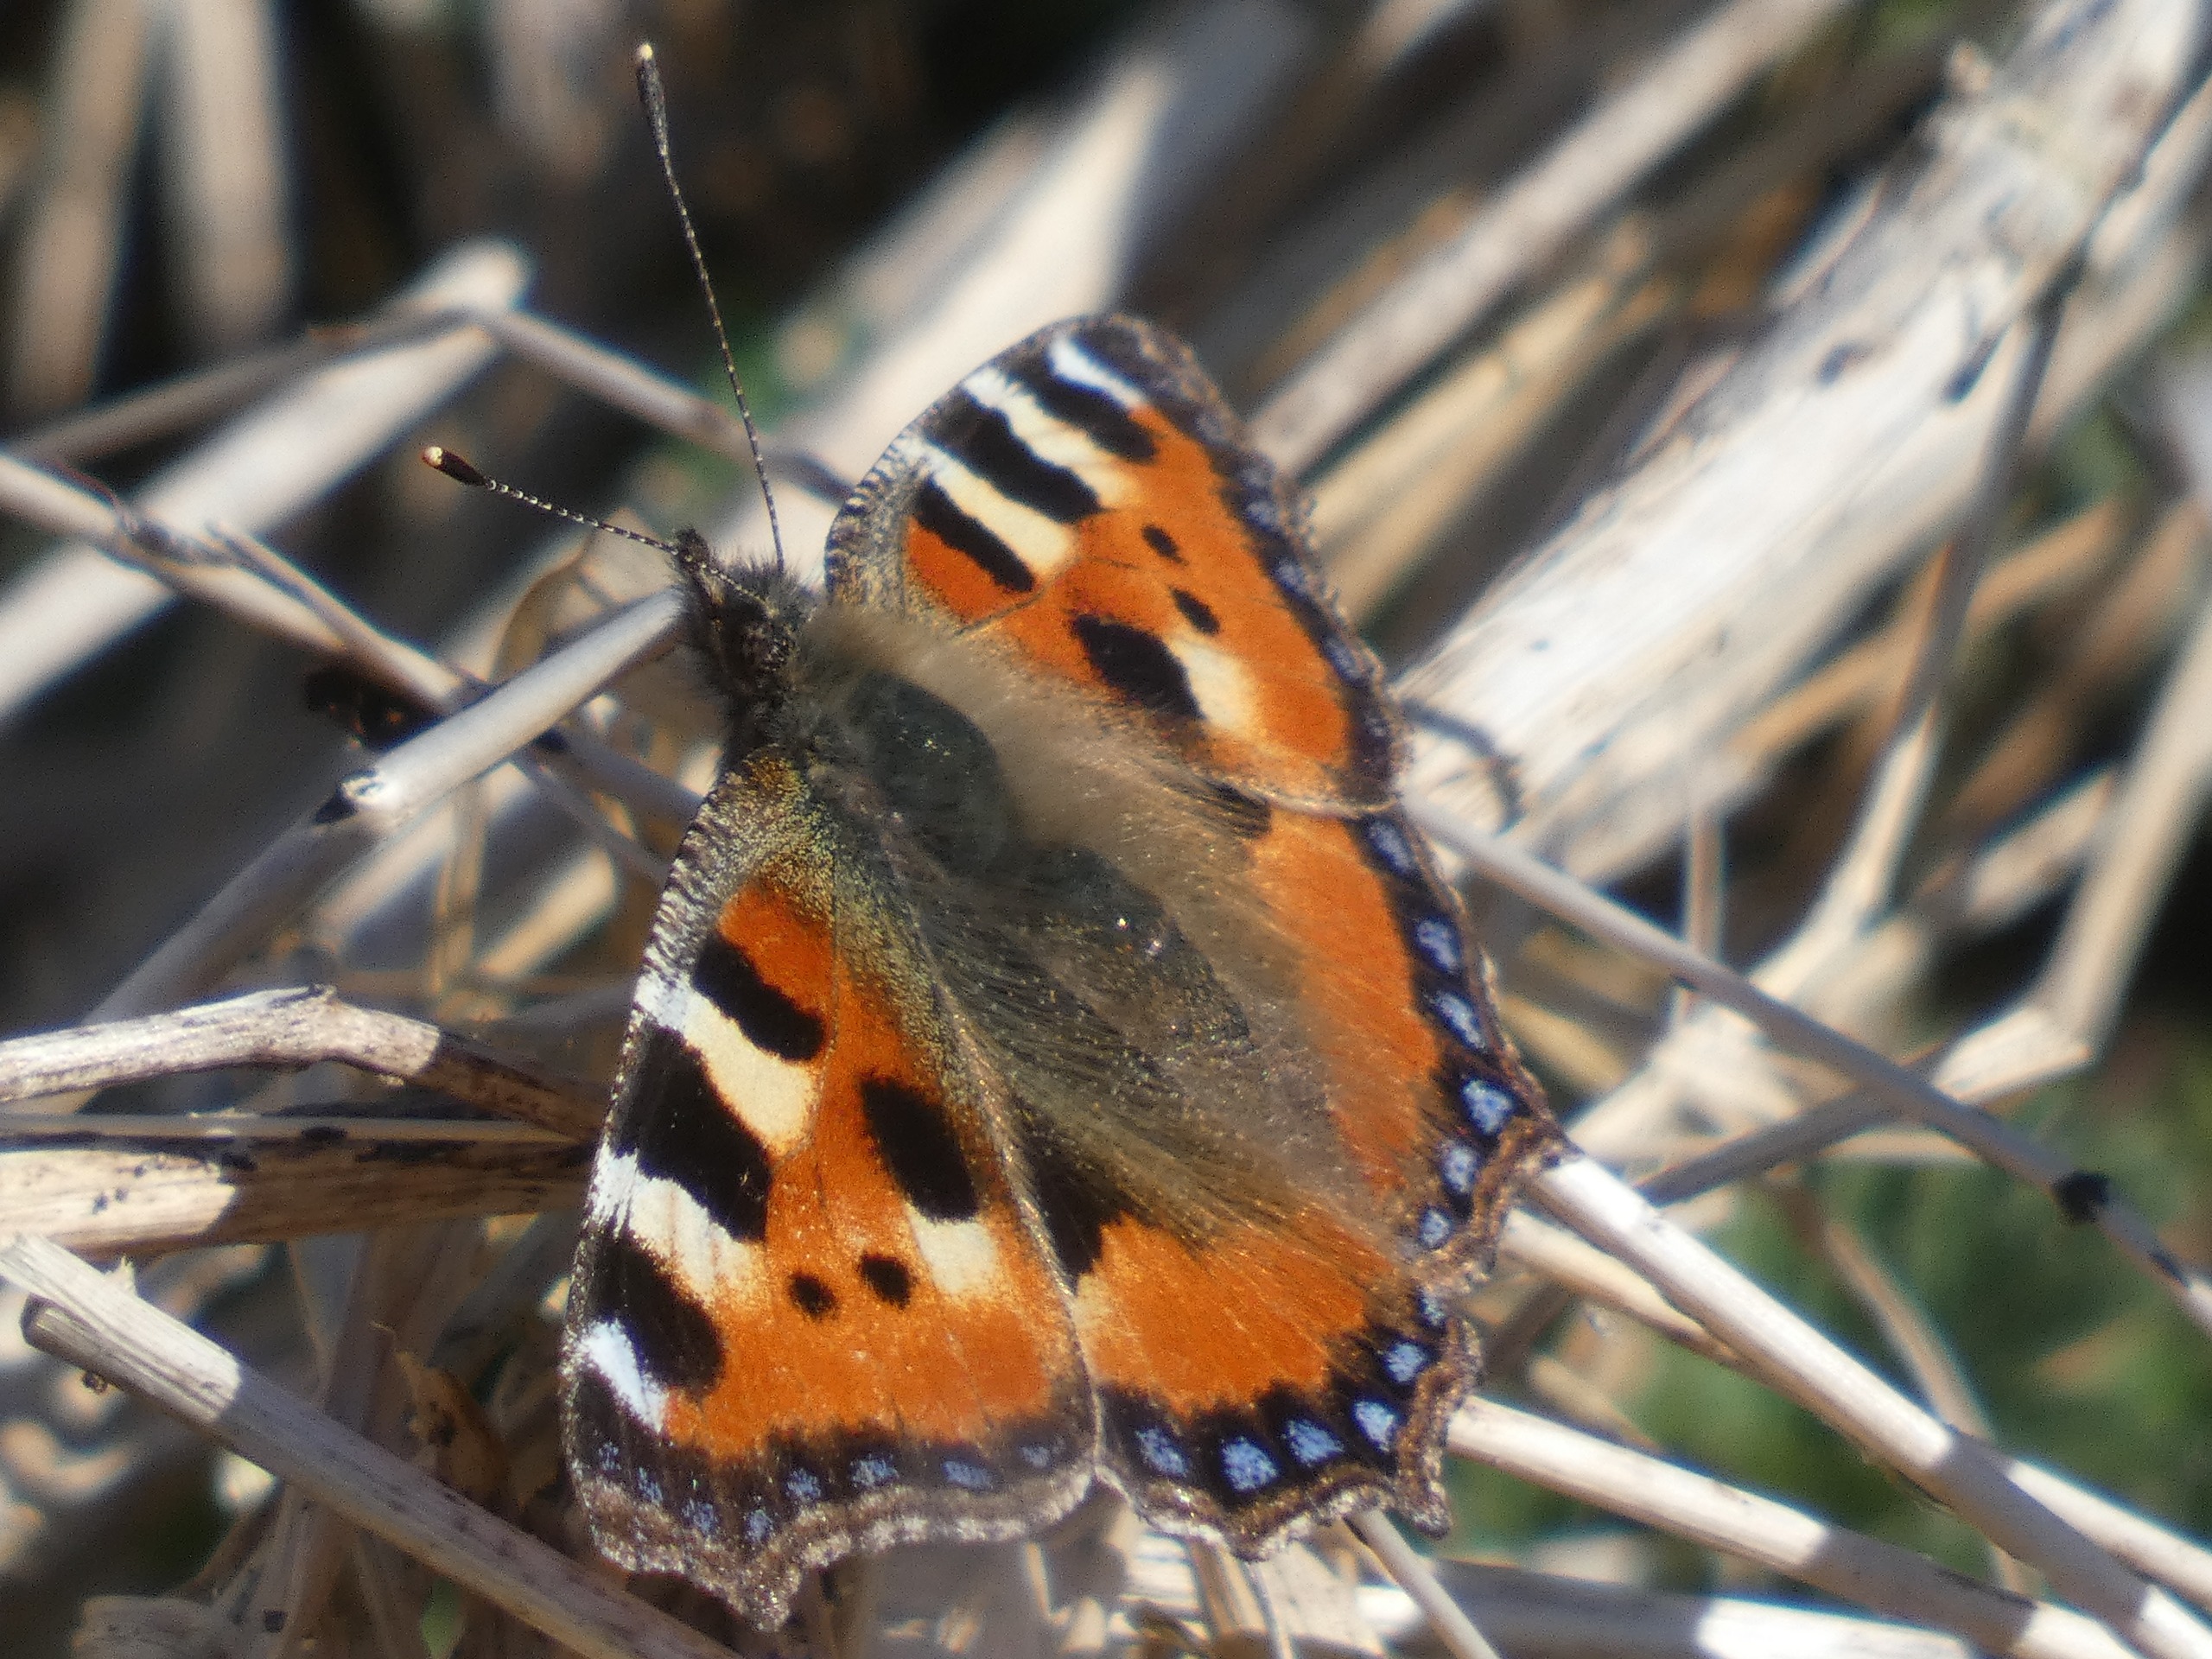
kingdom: Animalia
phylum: Arthropoda
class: Insecta
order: Lepidoptera
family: Nymphalidae
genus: Aglais
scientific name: Aglais urticae
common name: Nældens takvinge
